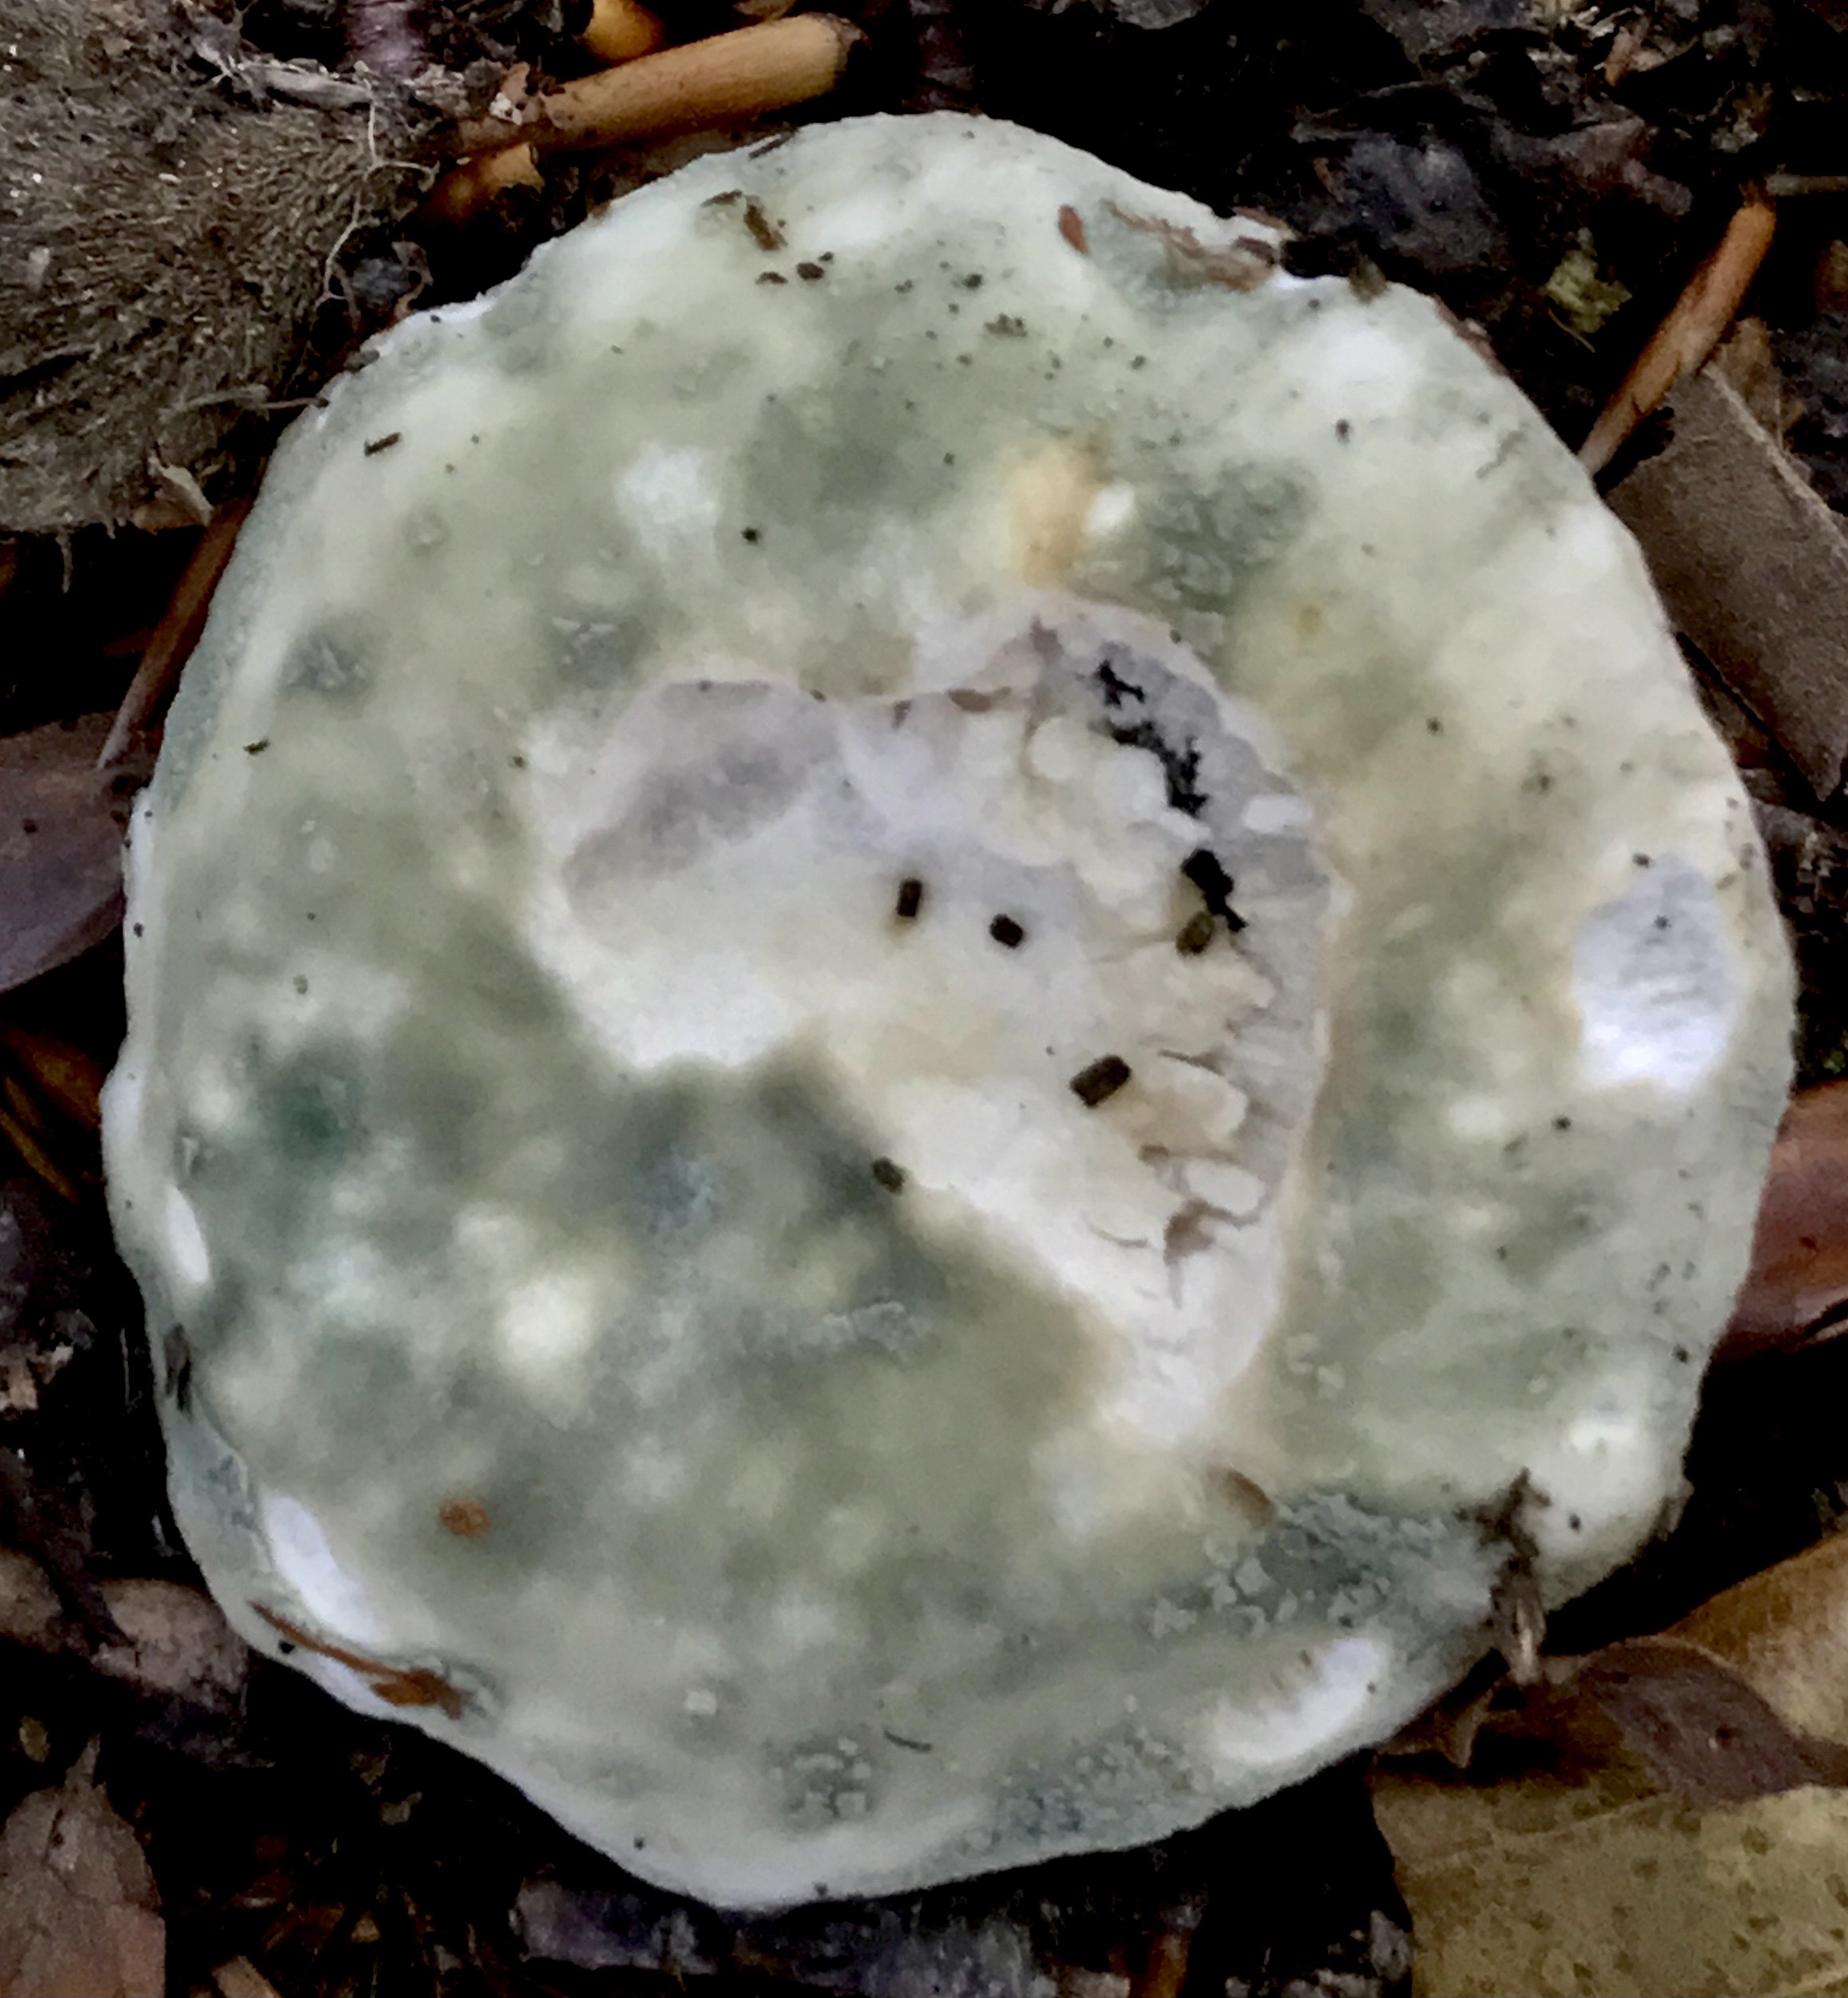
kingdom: Fungi
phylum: Basidiomycota
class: Agaricomycetes
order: Russulales
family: Russulaceae
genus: Russula
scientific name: Russula virescens
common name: spanskgrøn skørhat
